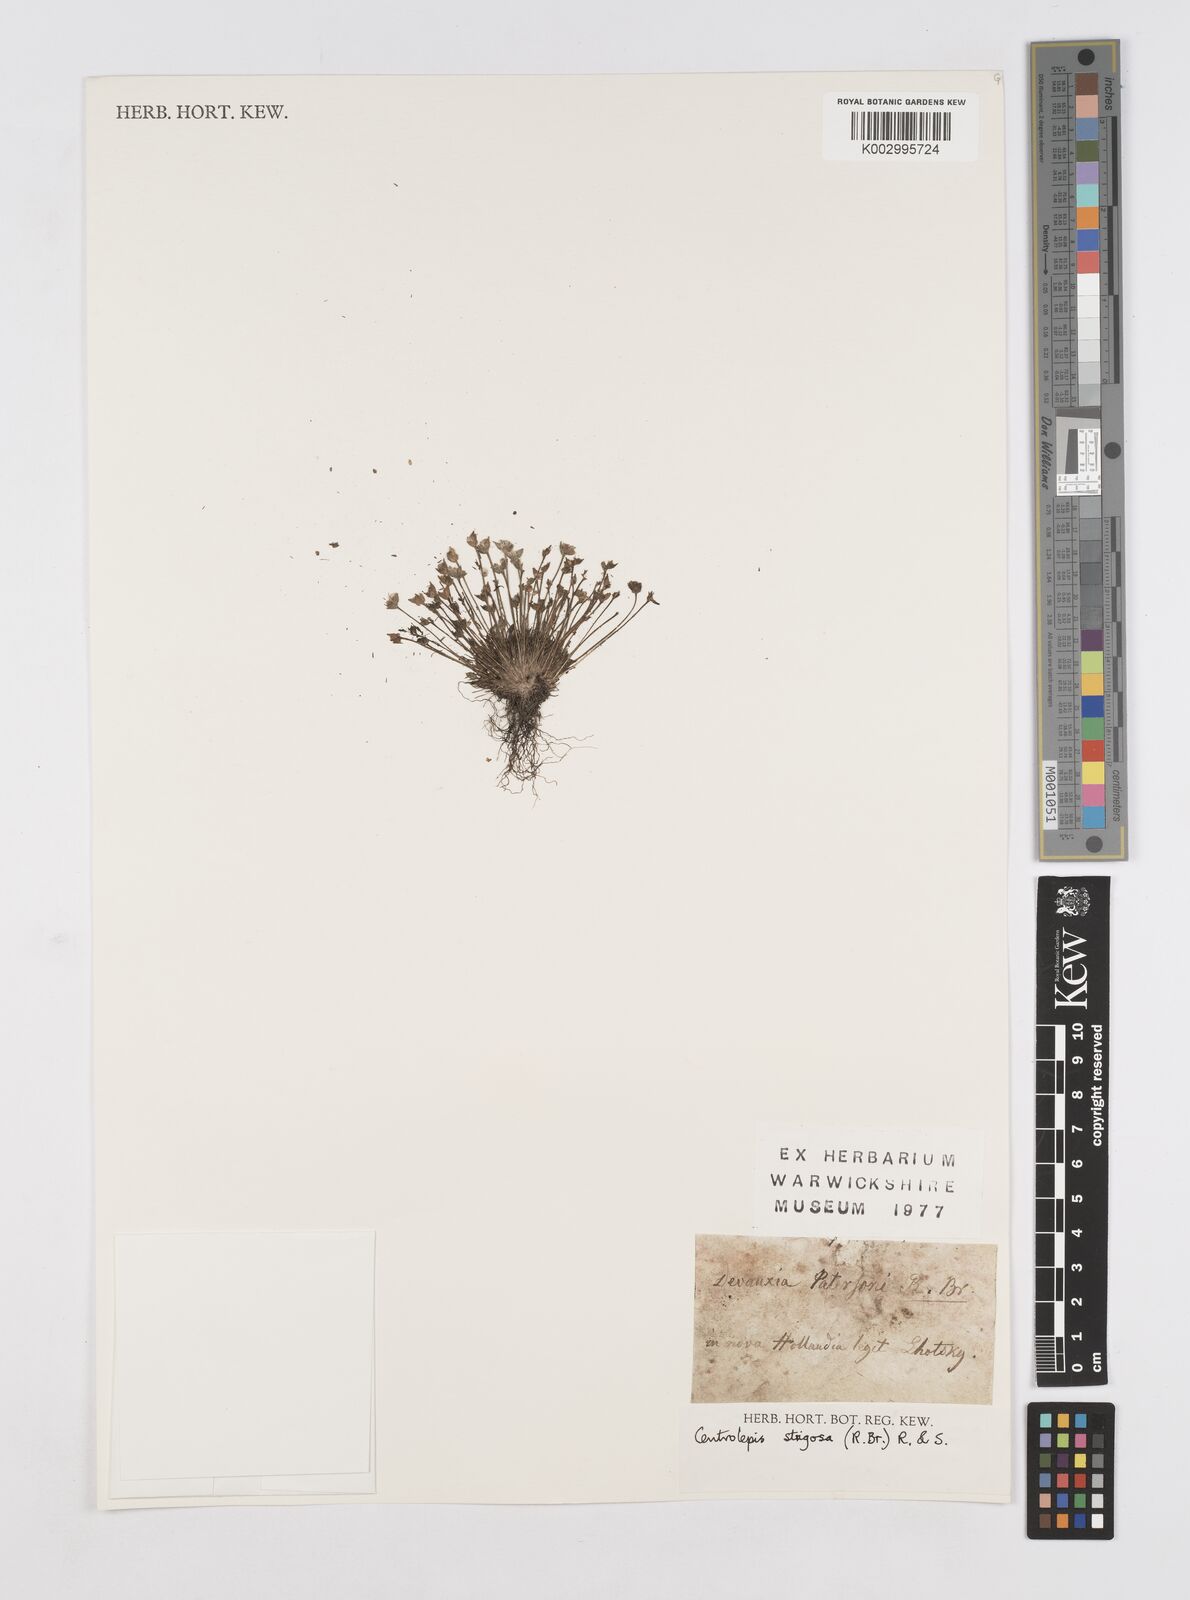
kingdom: Plantae
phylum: Tracheophyta
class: Liliopsida
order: Poales
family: Restionaceae
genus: Centrolepis
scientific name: Centrolepis strigosa
